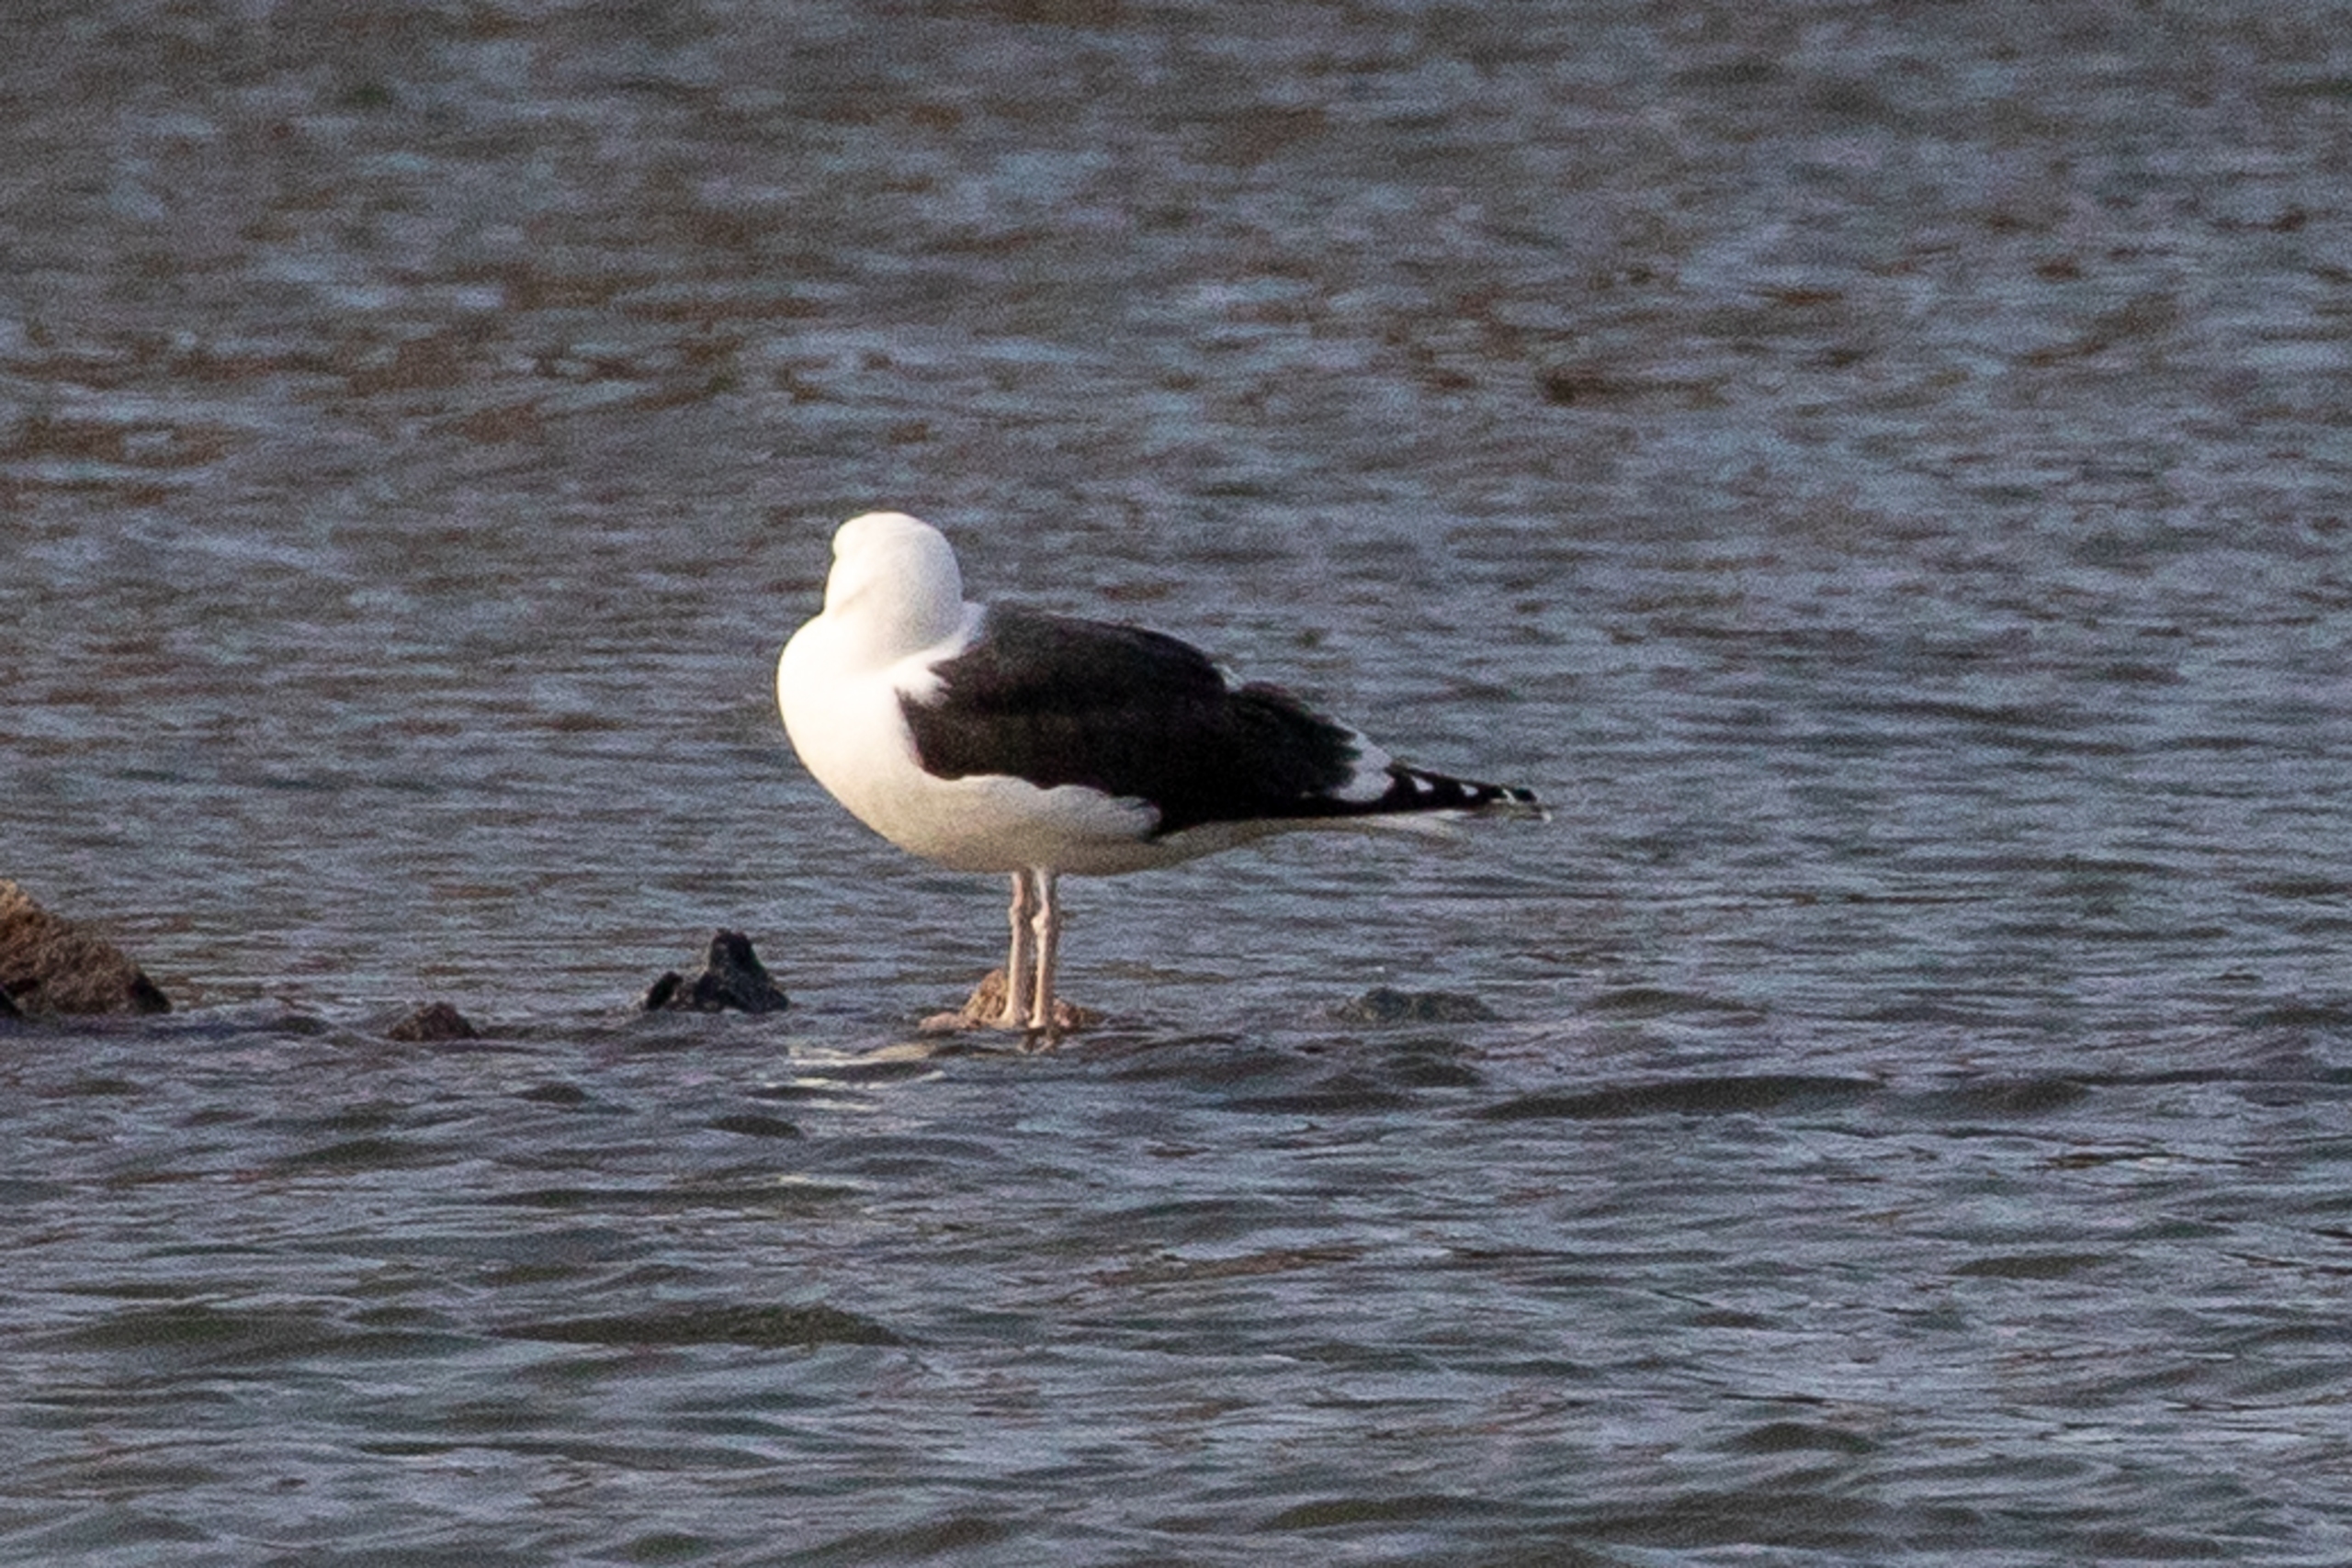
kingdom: Animalia
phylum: Chordata
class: Aves
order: Charadriiformes
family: Laridae
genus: Larus
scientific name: Larus marinus
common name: Svartbag
